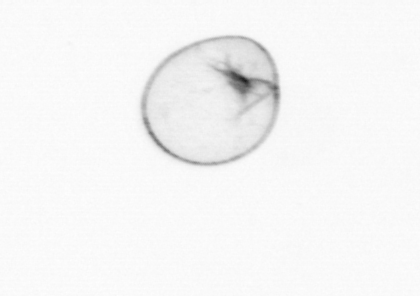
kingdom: Chromista
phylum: Myzozoa
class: Dinophyceae
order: Noctilucales
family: Noctilucaceae
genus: Noctiluca
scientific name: Noctiluca scintillans
